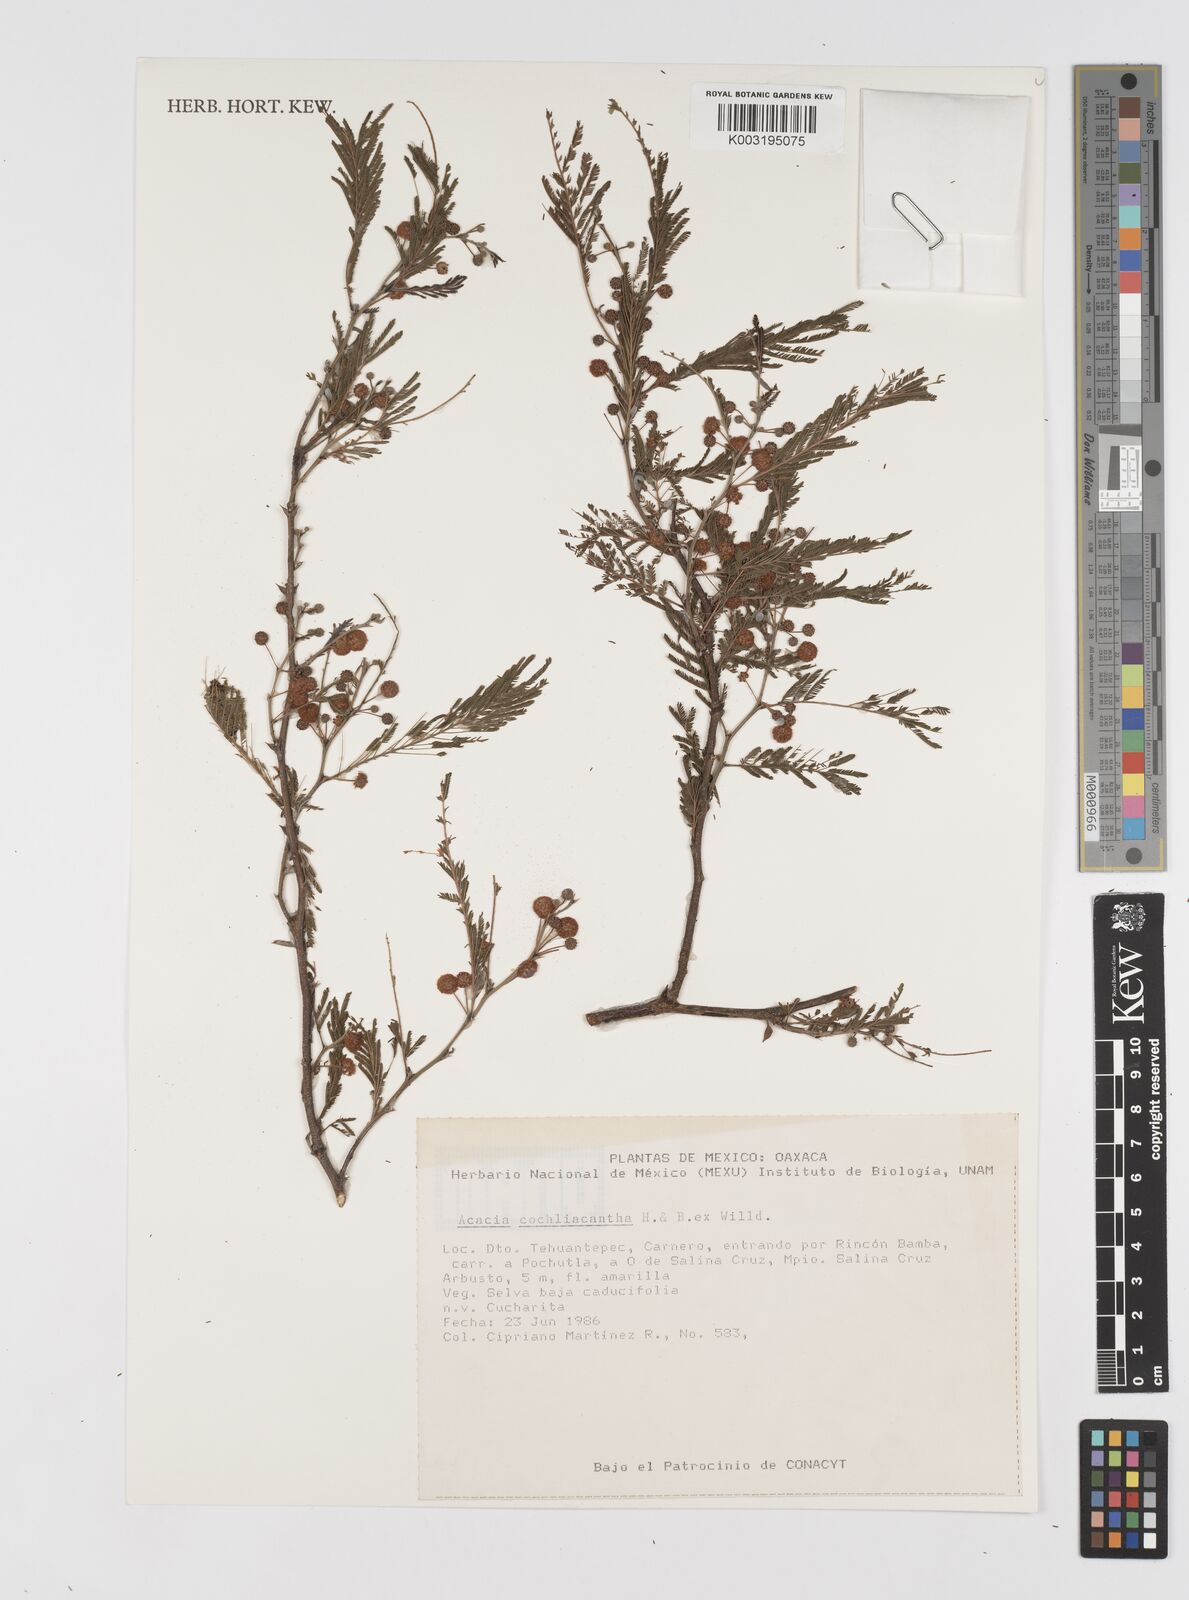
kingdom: Plantae
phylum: Tracheophyta
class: Magnoliopsida
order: Fabales
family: Fabaceae
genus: Vachellia
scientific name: Vachellia campeachiana
